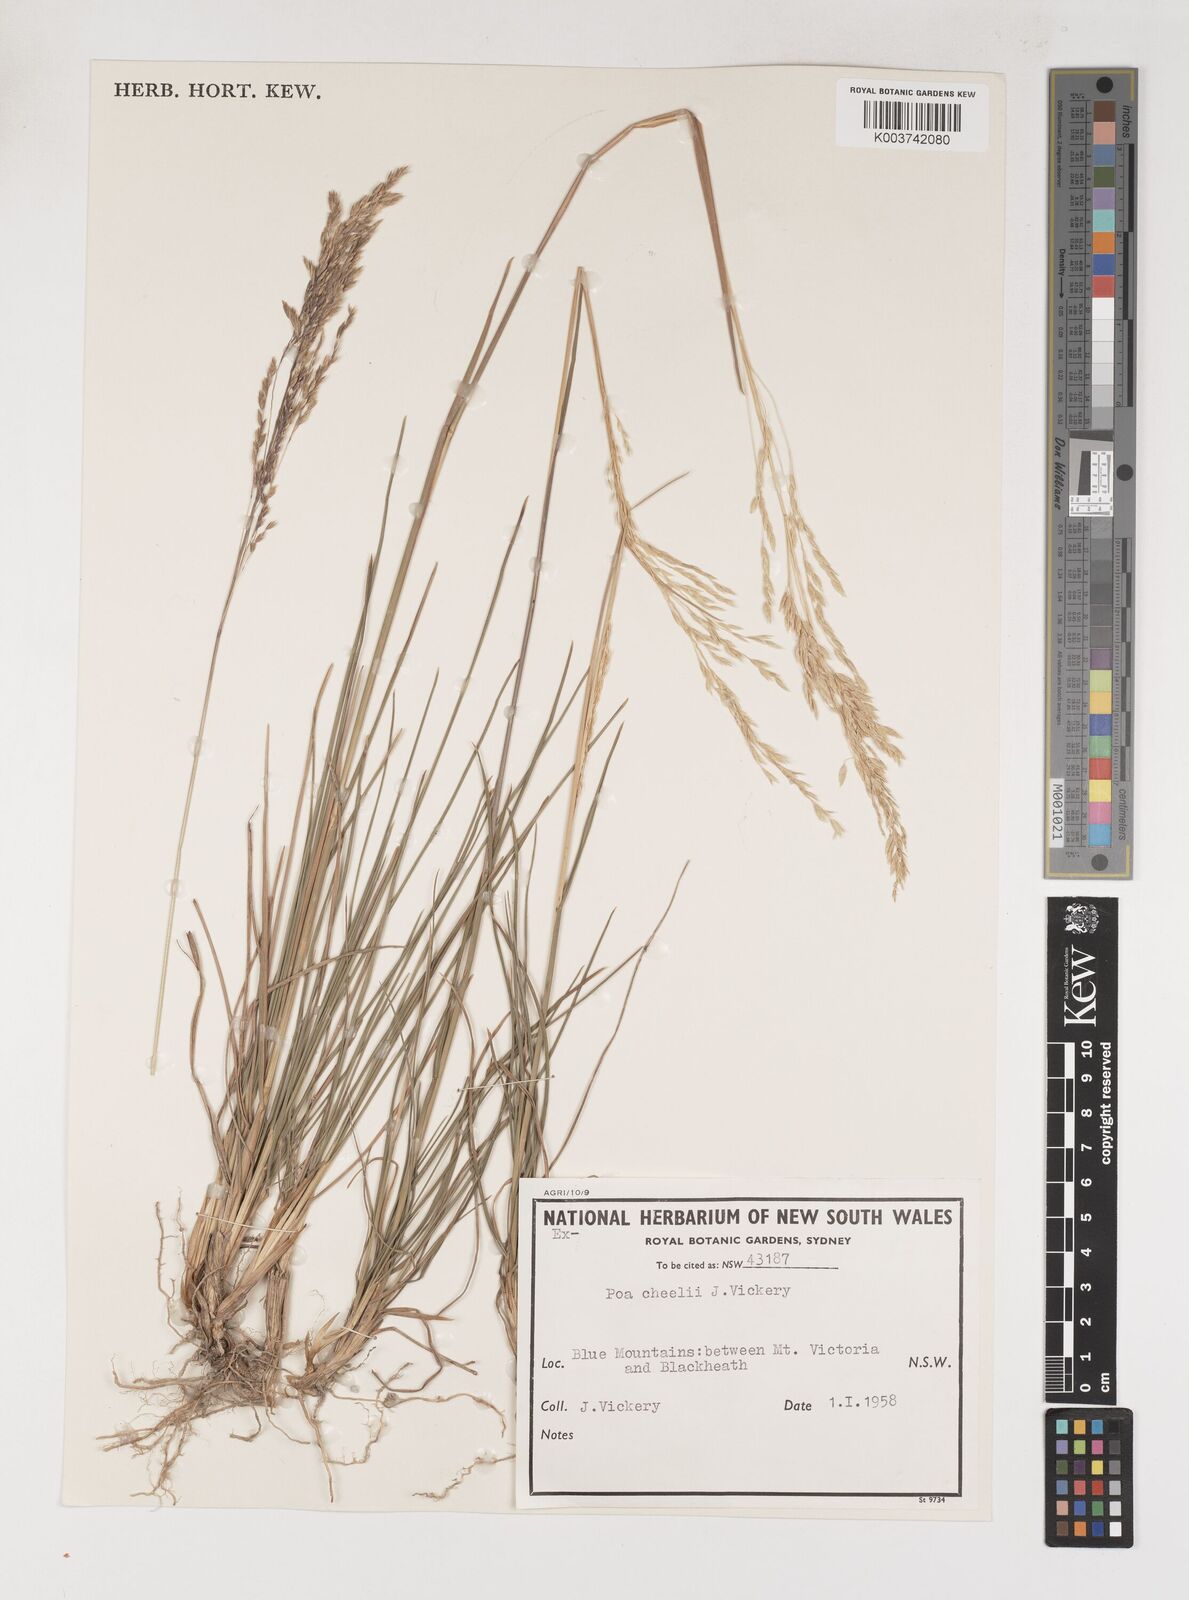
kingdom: Plantae
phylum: Tracheophyta
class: Liliopsida
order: Poales
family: Poaceae
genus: Poa
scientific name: Poa cheelii
